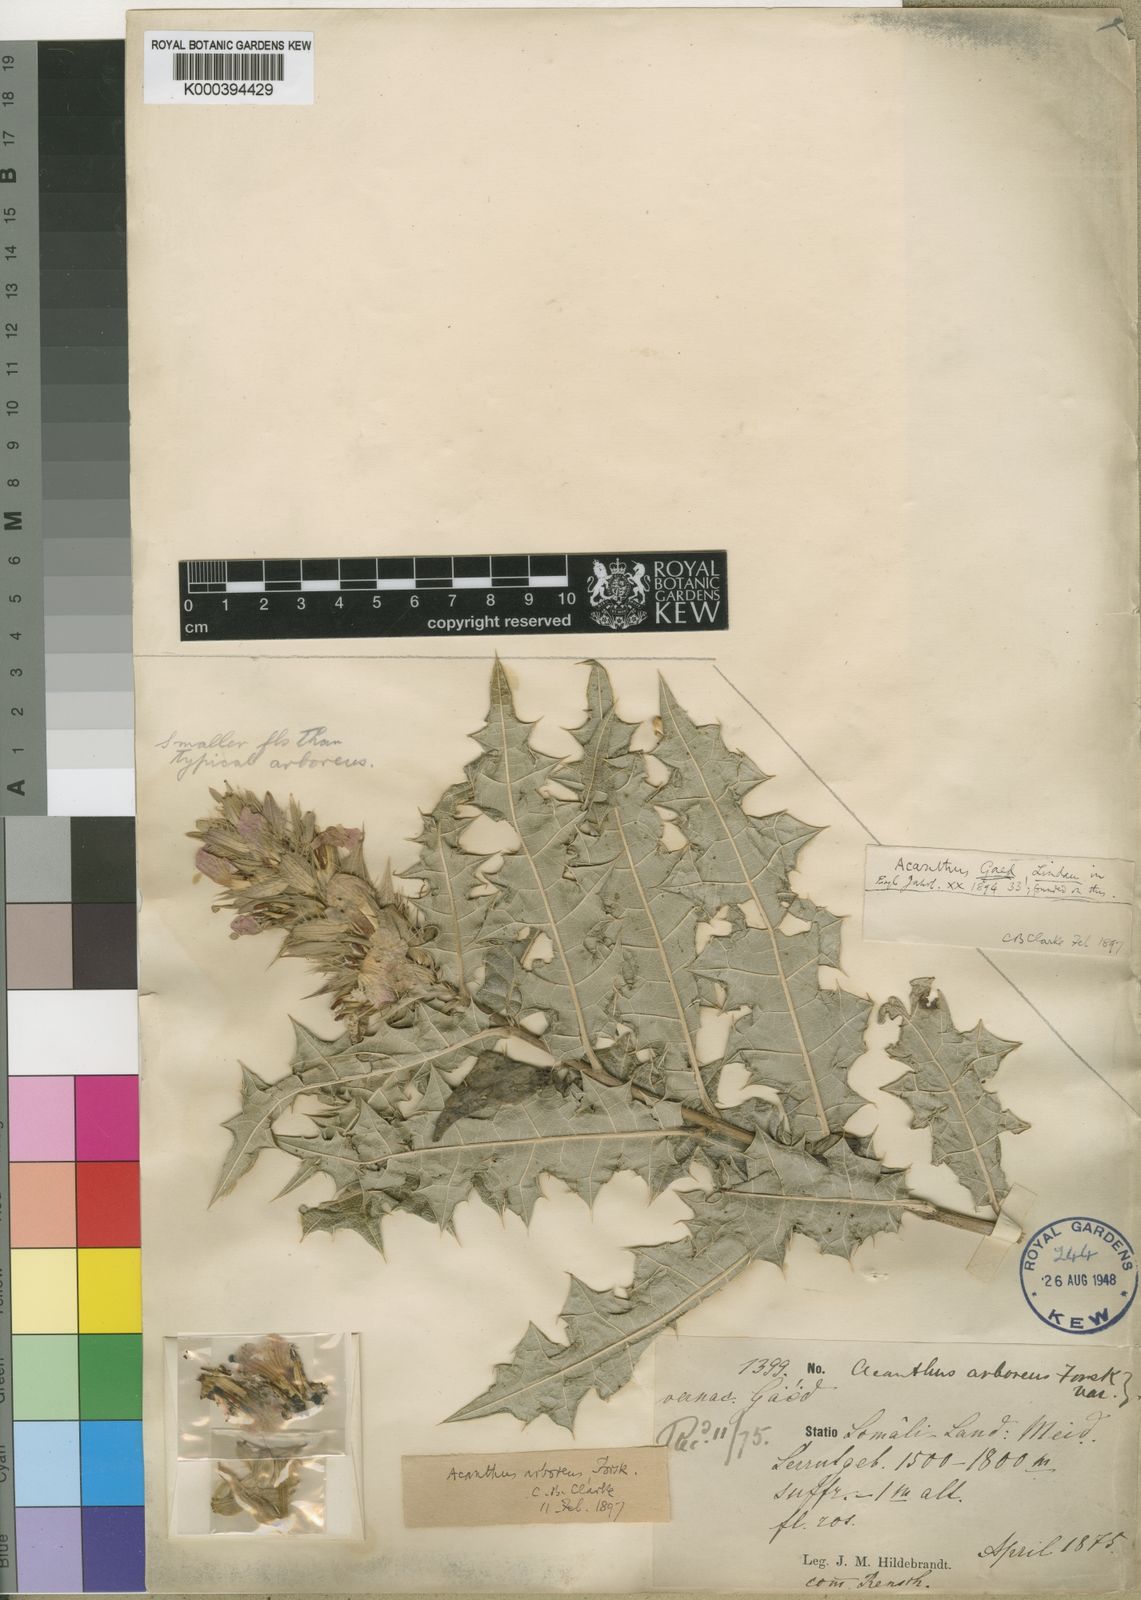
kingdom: Plantae
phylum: Tracheophyta
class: Magnoliopsida
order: Lamiales
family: Acanthaceae
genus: Acanthus
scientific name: Acanthus gaed
